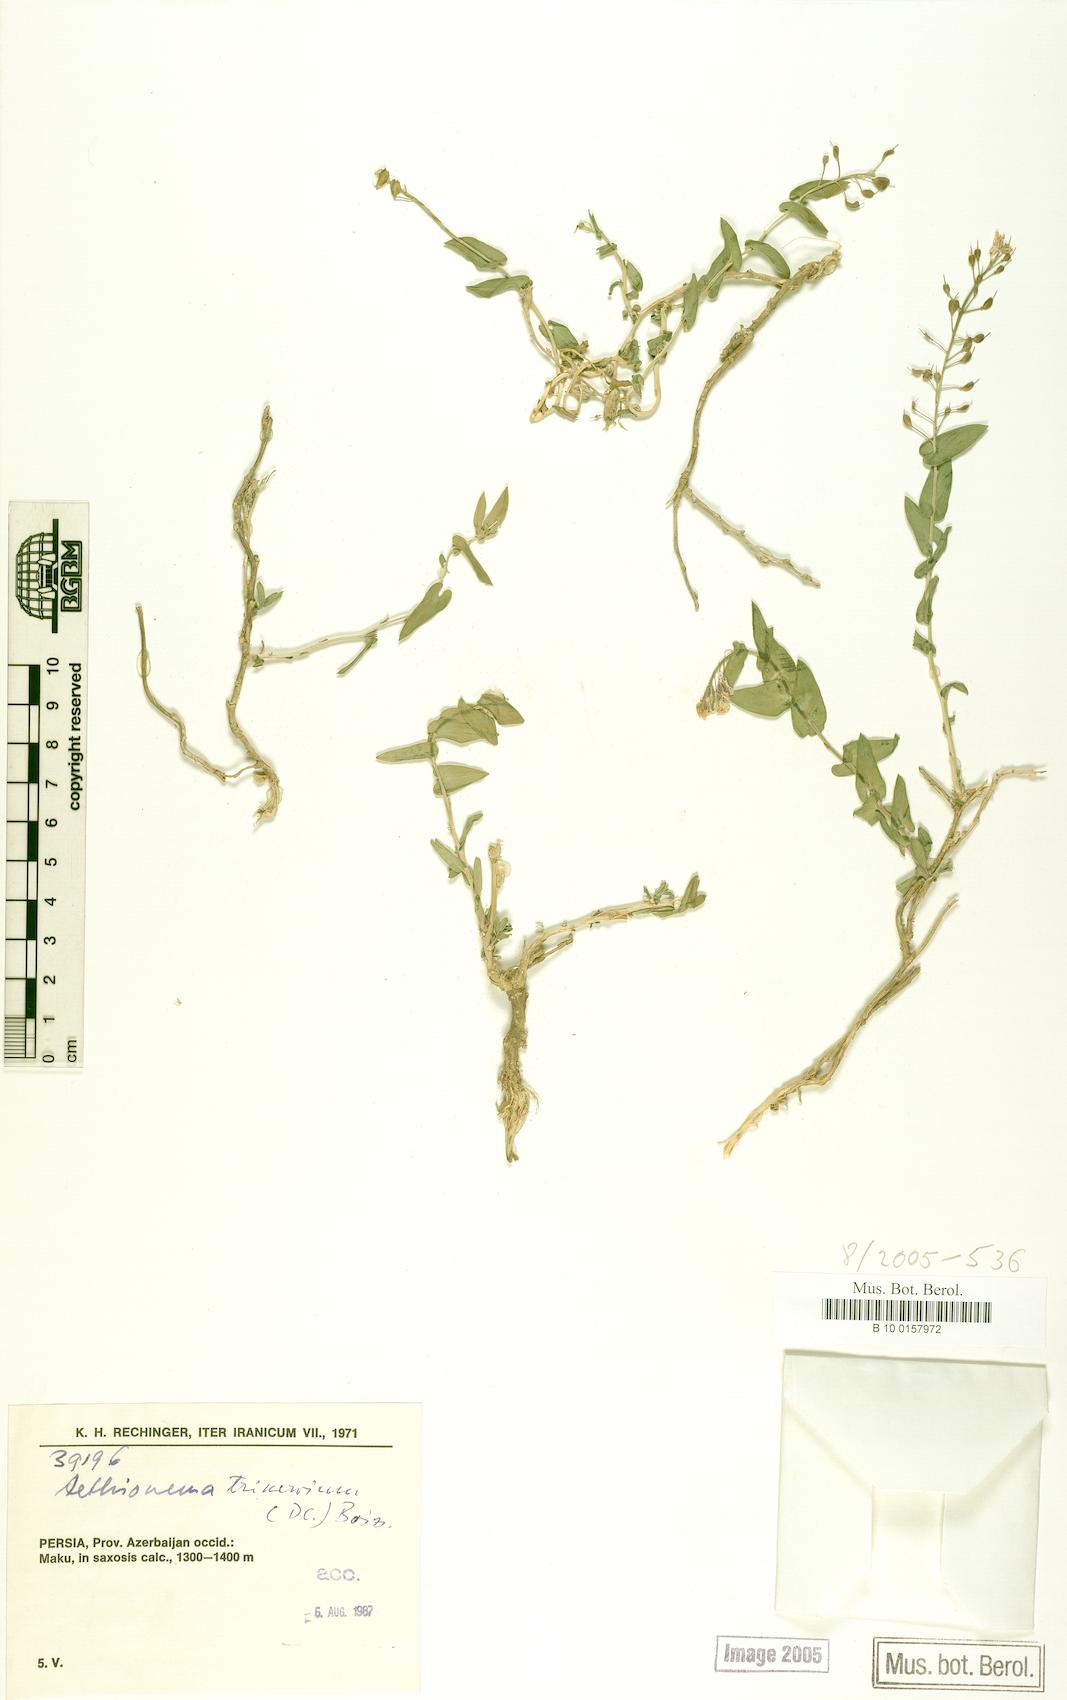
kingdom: Plantae
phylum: Tracheophyta
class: Magnoliopsida
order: Brassicales
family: Brassicaceae
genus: Noccaea
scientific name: Noccaea trinervia
